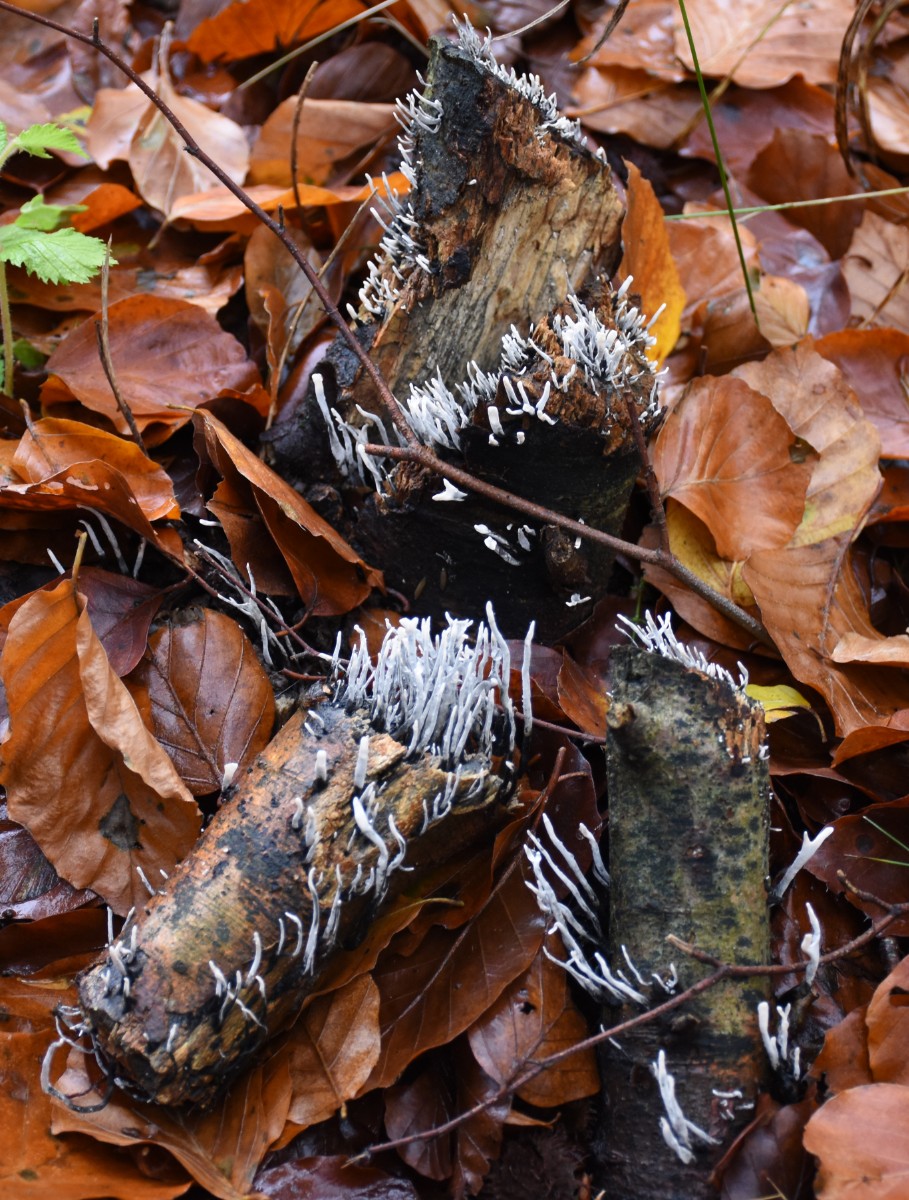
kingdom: Fungi
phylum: Ascomycota
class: Sordariomycetes
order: Xylariales
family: Xylariaceae
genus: Xylaria
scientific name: Xylaria hypoxylon
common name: grenet stødsvamp
